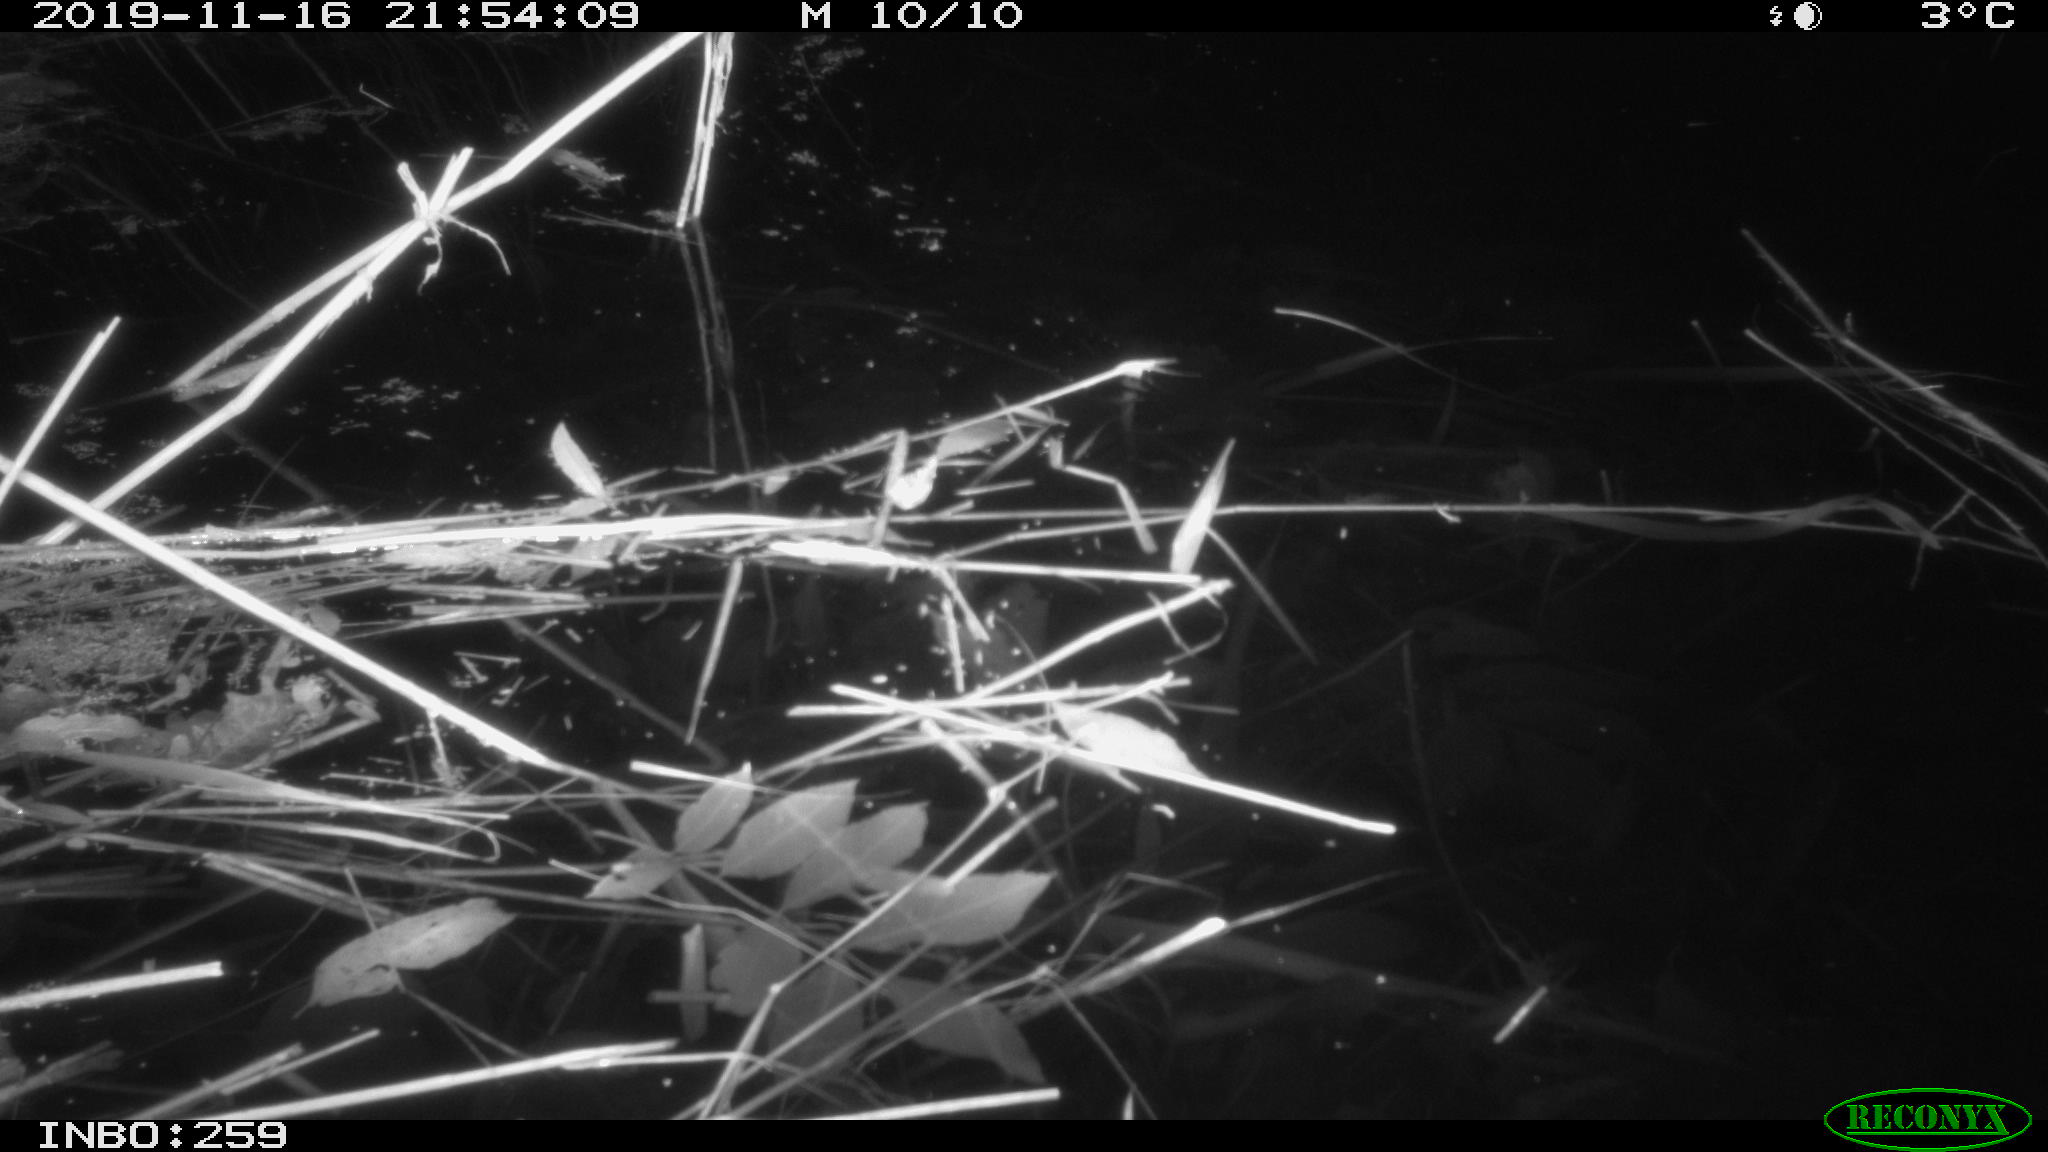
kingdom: Animalia
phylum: Chordata
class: Mammalia
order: Rodentia
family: Muridae
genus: Rattus
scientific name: Rattus norvegicus
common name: Brown rat
